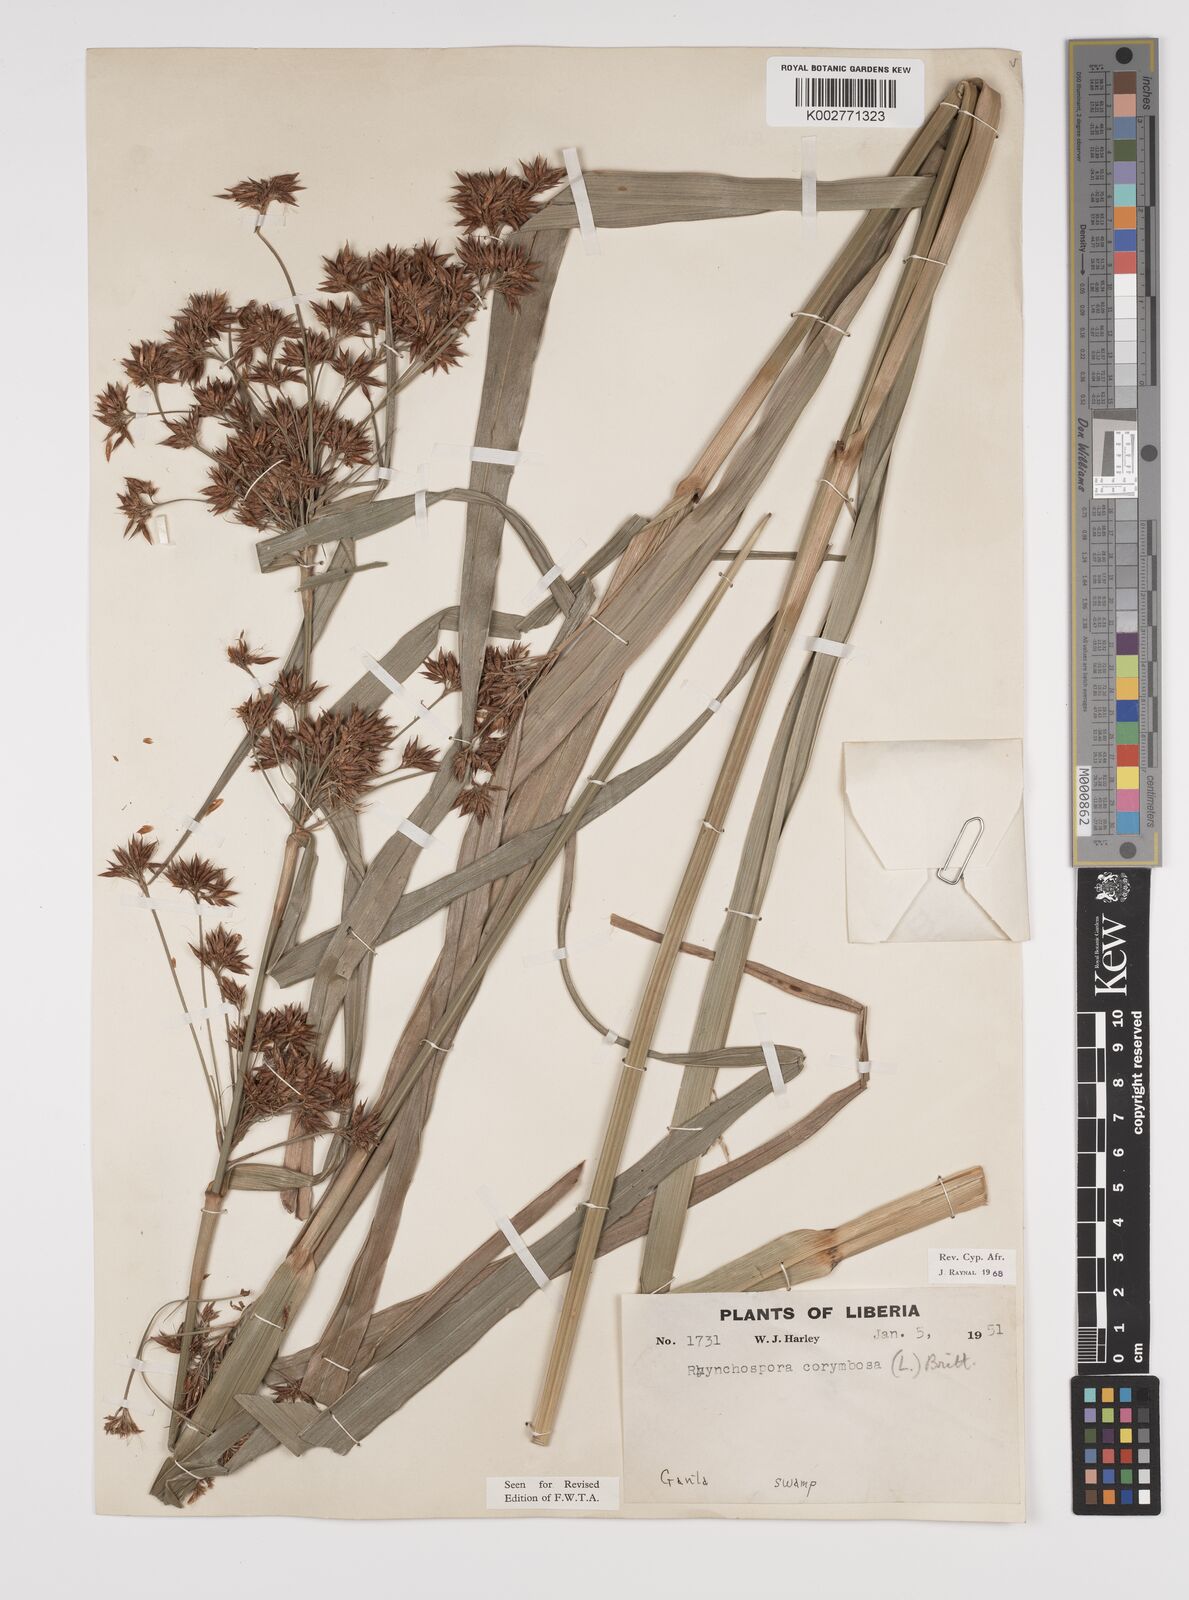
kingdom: Plantae
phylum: Tracheophyta
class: Liliopsida
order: Poales
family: Cyperaceae
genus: Rhynchospora
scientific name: Rhynchospora corymbosa
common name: Golden beak sedge
